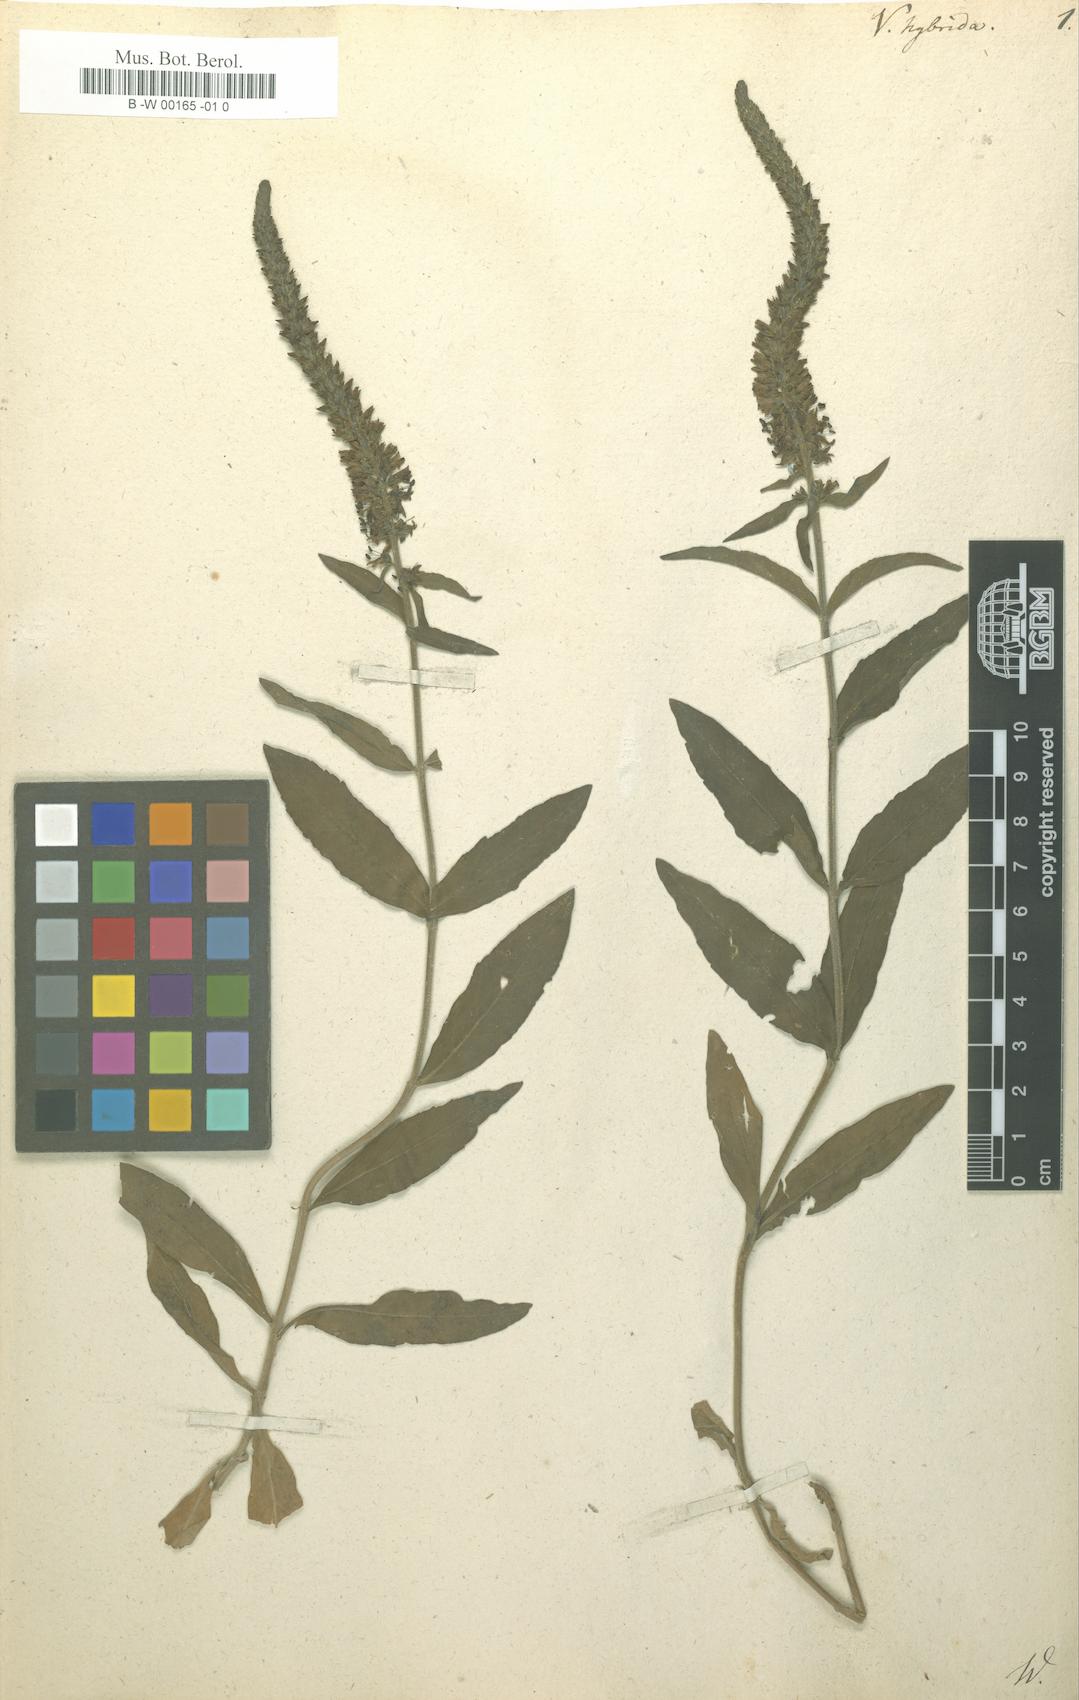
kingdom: Plantae
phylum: Tracheophyta
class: Magnoliopsida
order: Lamiales
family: Plantaginaceae
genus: Veronica
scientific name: Veronica spicata
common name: Spiked speedwell
